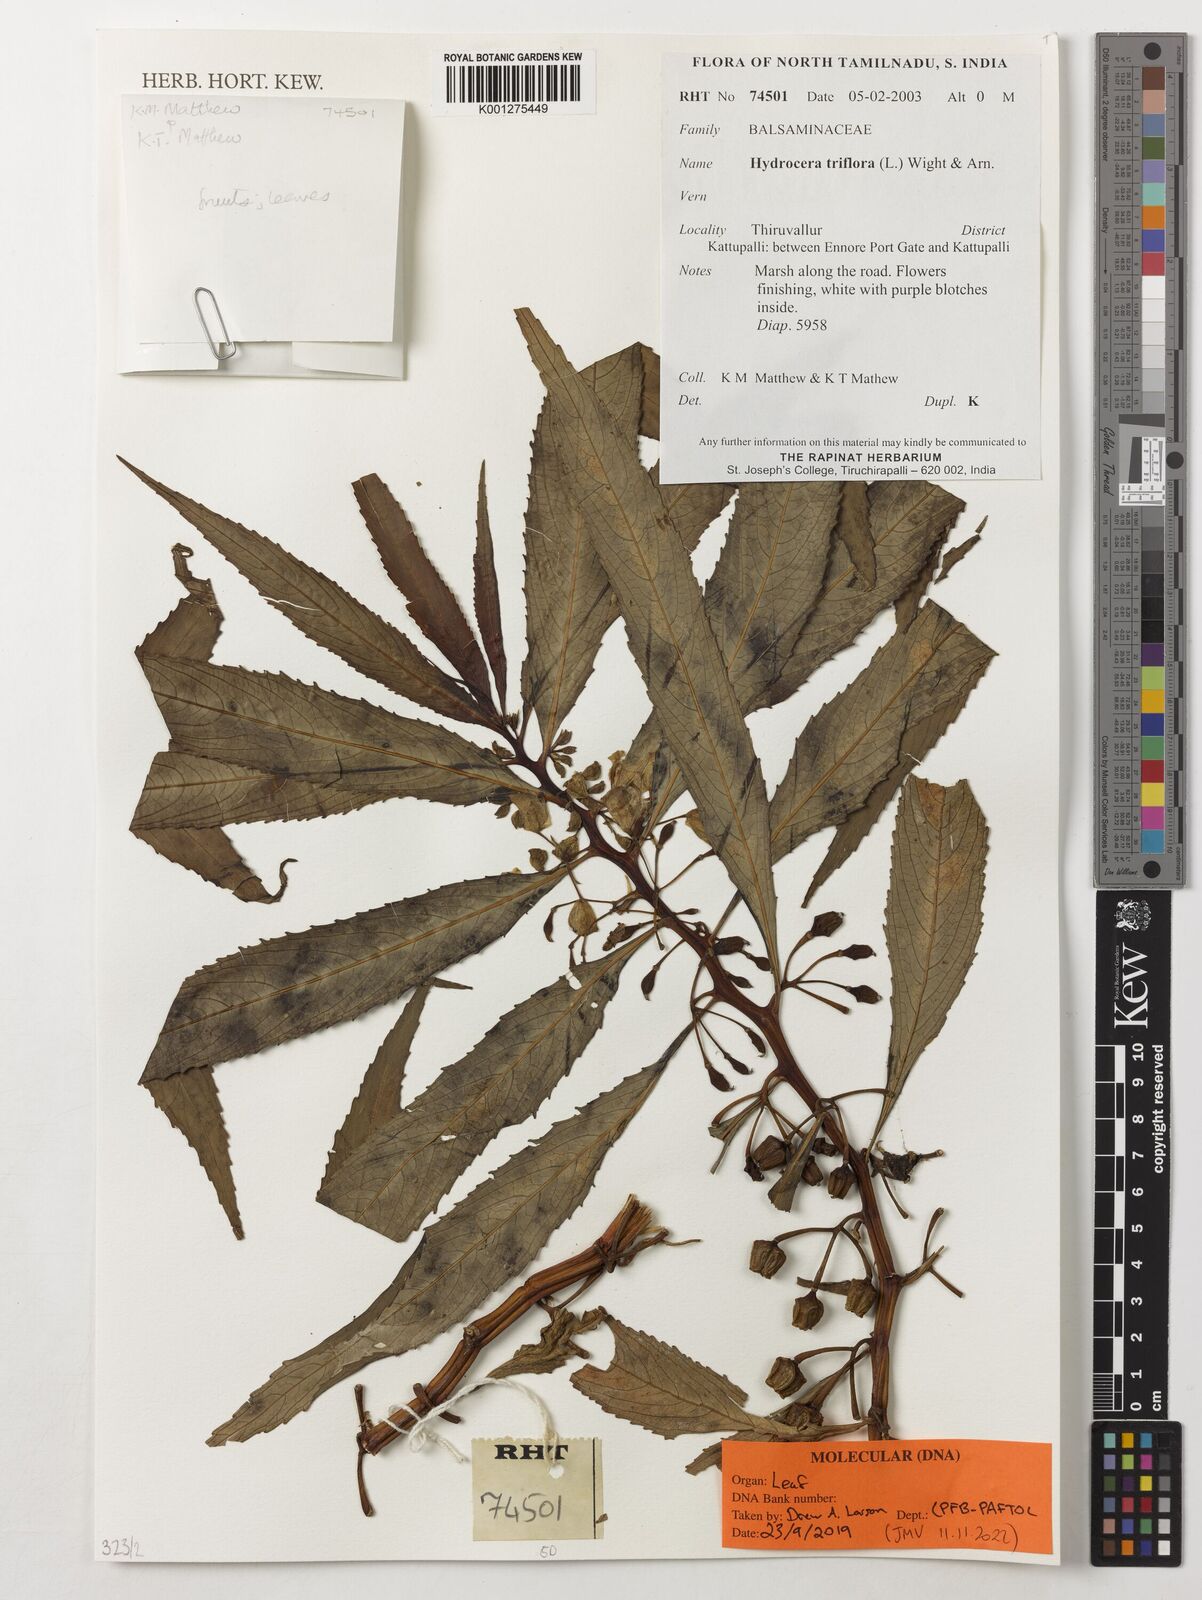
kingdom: Plantae
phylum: Tracheophyta
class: Magnoliopsida
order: Ericales
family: Balsaminaceae
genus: Hydrocera
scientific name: Hydrocera triflora
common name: Marsh henna
